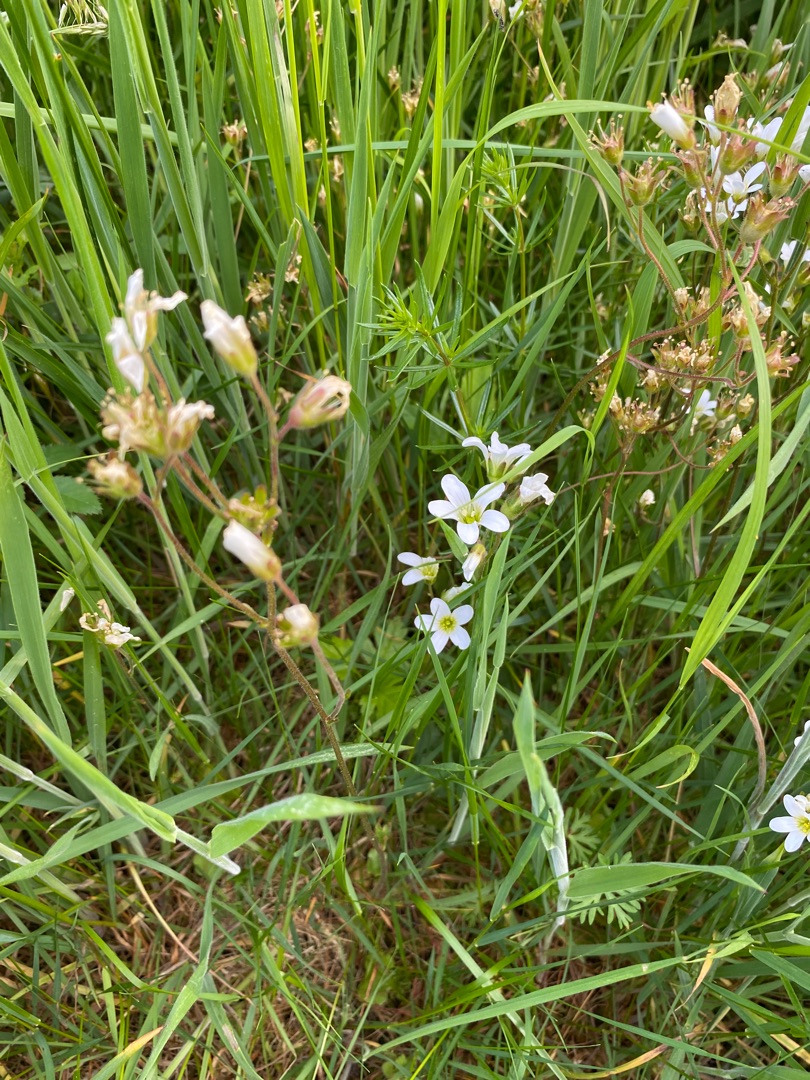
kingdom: Plantae
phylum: Tracheophyta
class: Magnoliopsida
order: Saxifragales
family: Saxifragaceae
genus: Saxifraga
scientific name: Saxifraga granulata
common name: Kornet stenbræk
